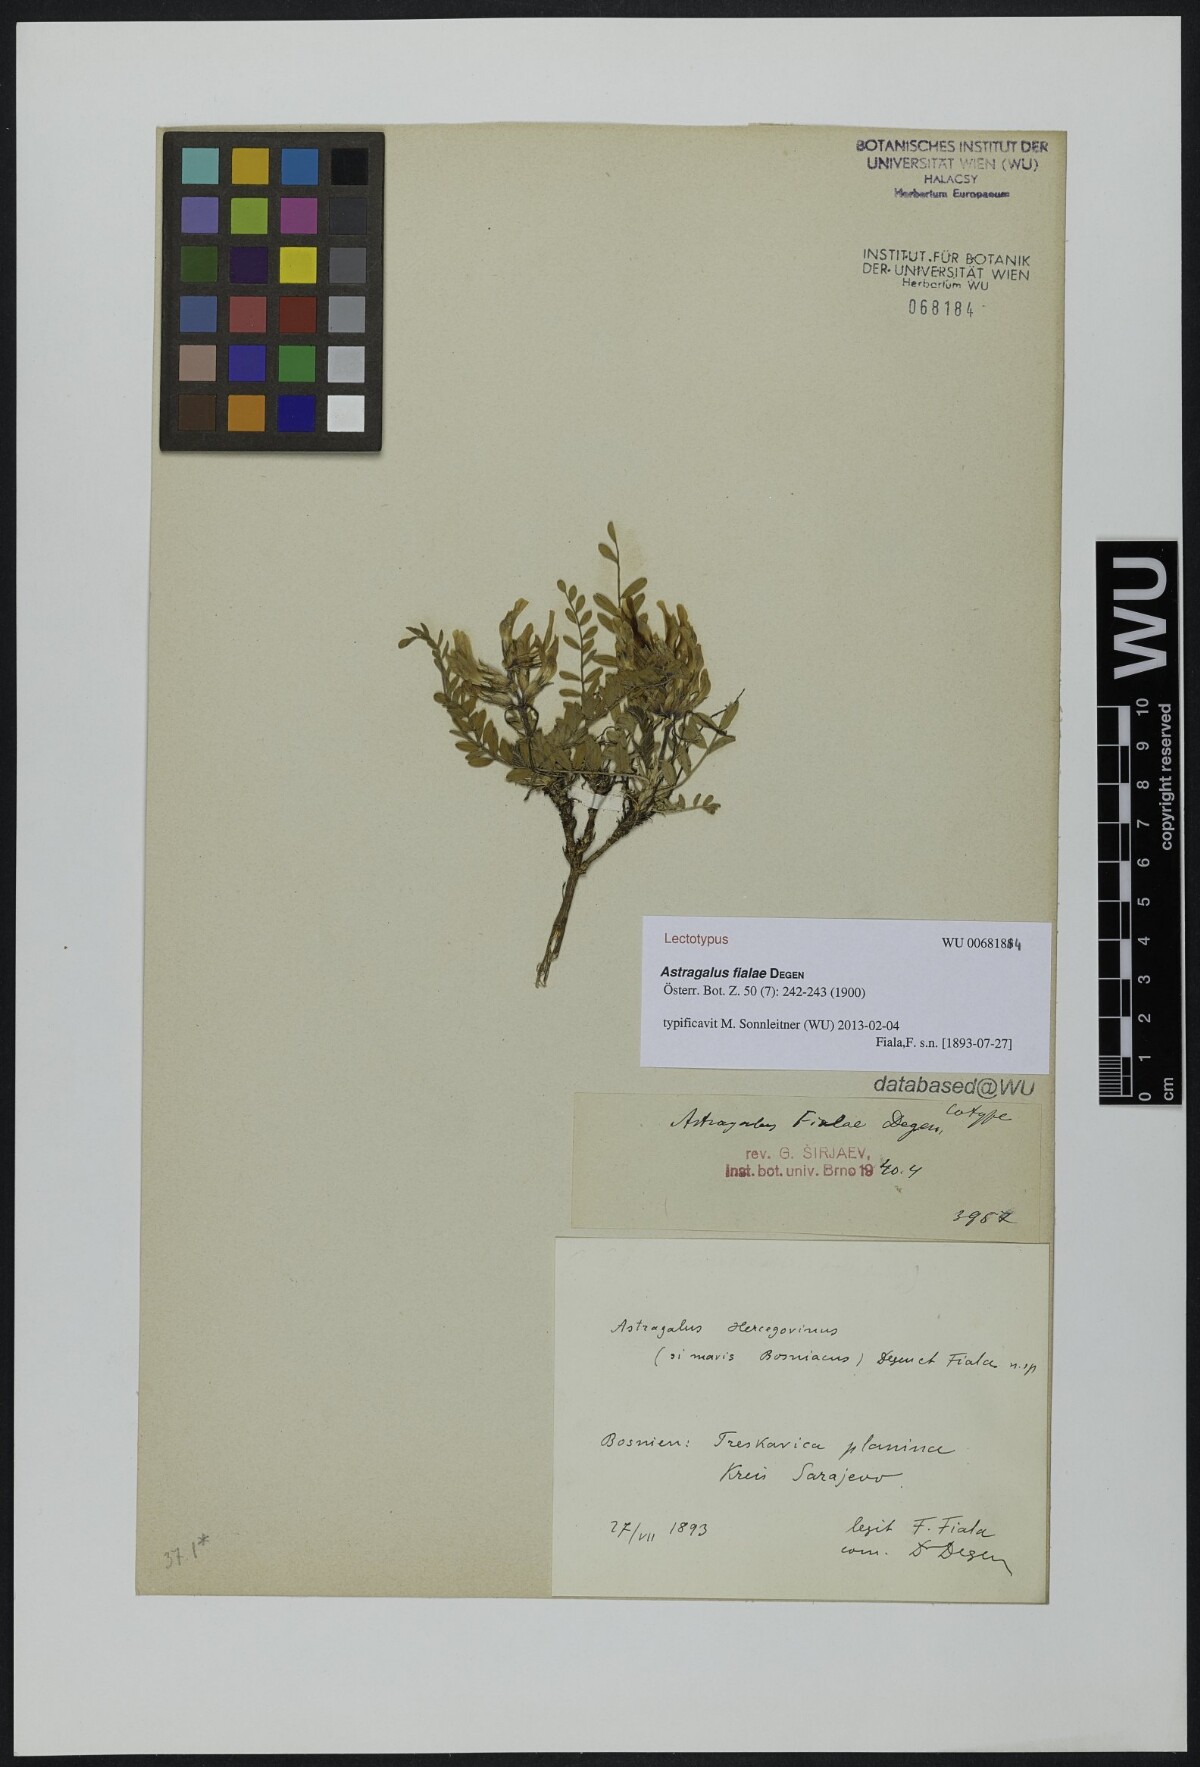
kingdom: Plantae
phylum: Tracheophyta
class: Magnoliopsida
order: Fabales
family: Fabaceae
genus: Astragalus
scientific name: Astragalus fialae
